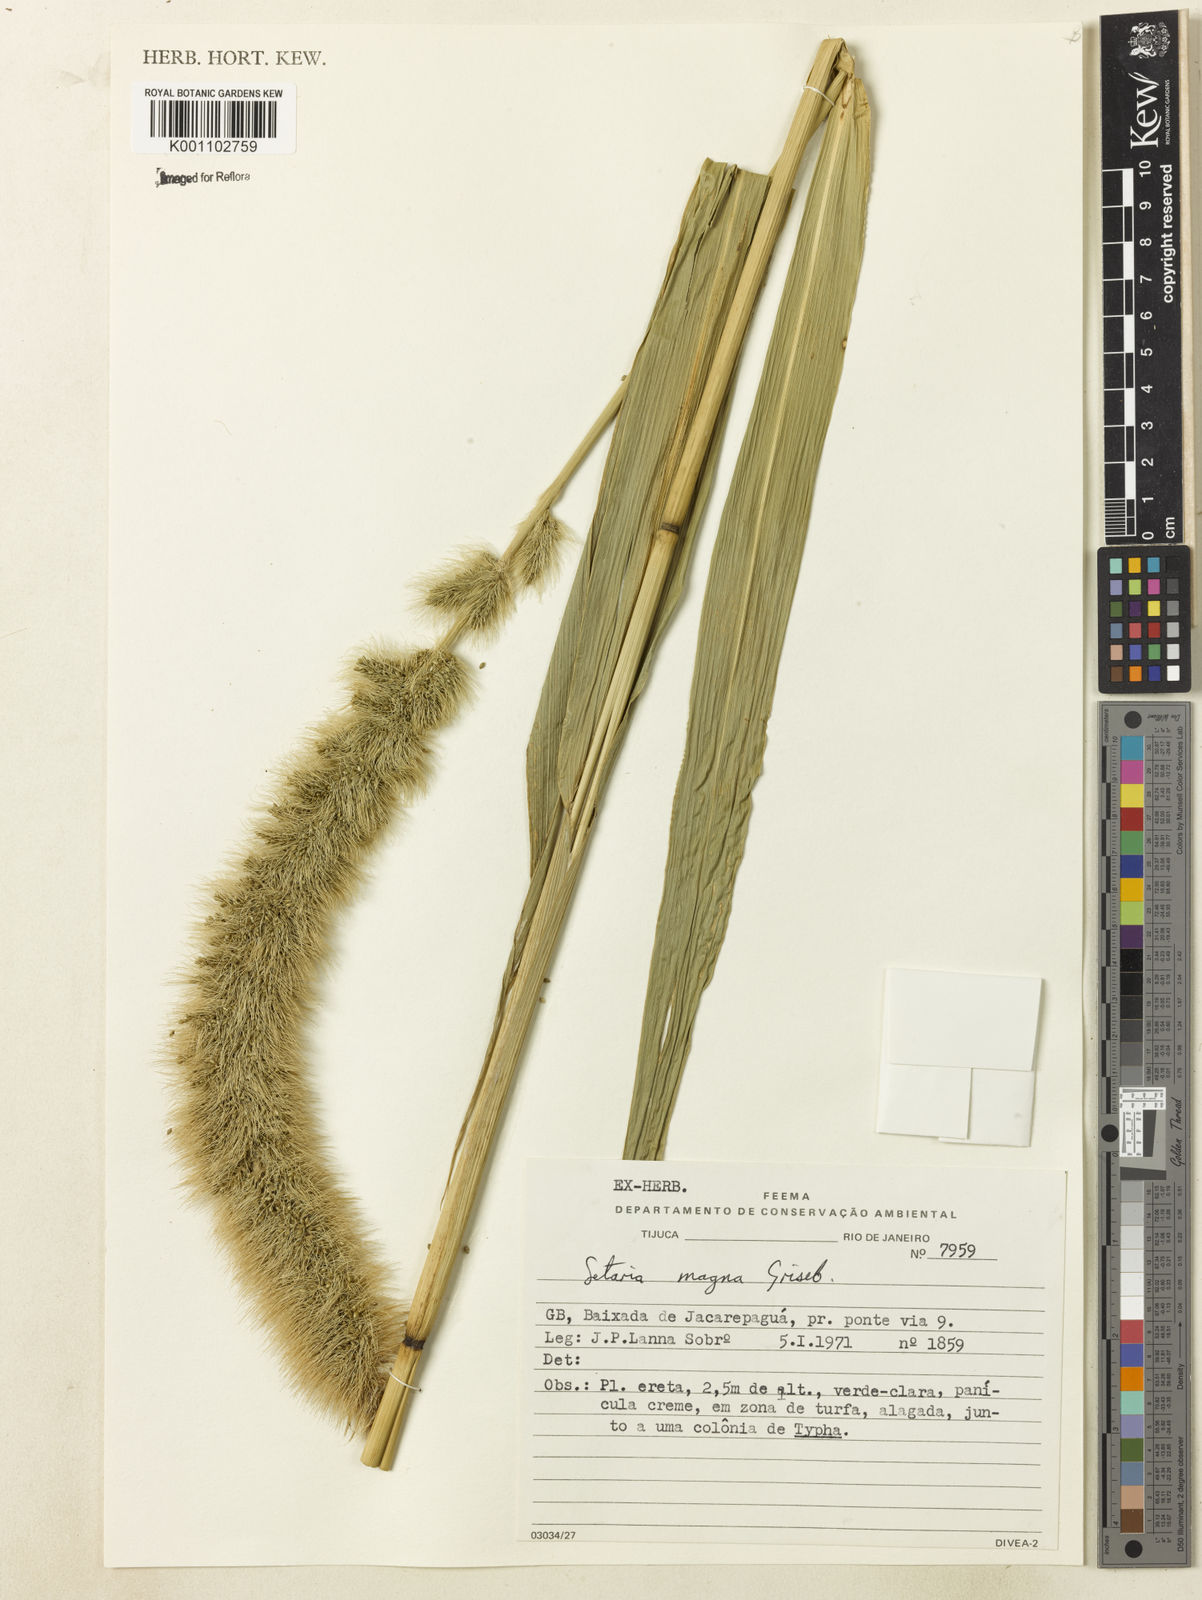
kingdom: Plantae
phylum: Tracheophyta
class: Liliopsida
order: Poales
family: Poaceae
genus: Setaria
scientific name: Setaria magna
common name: Giant bristle grass
